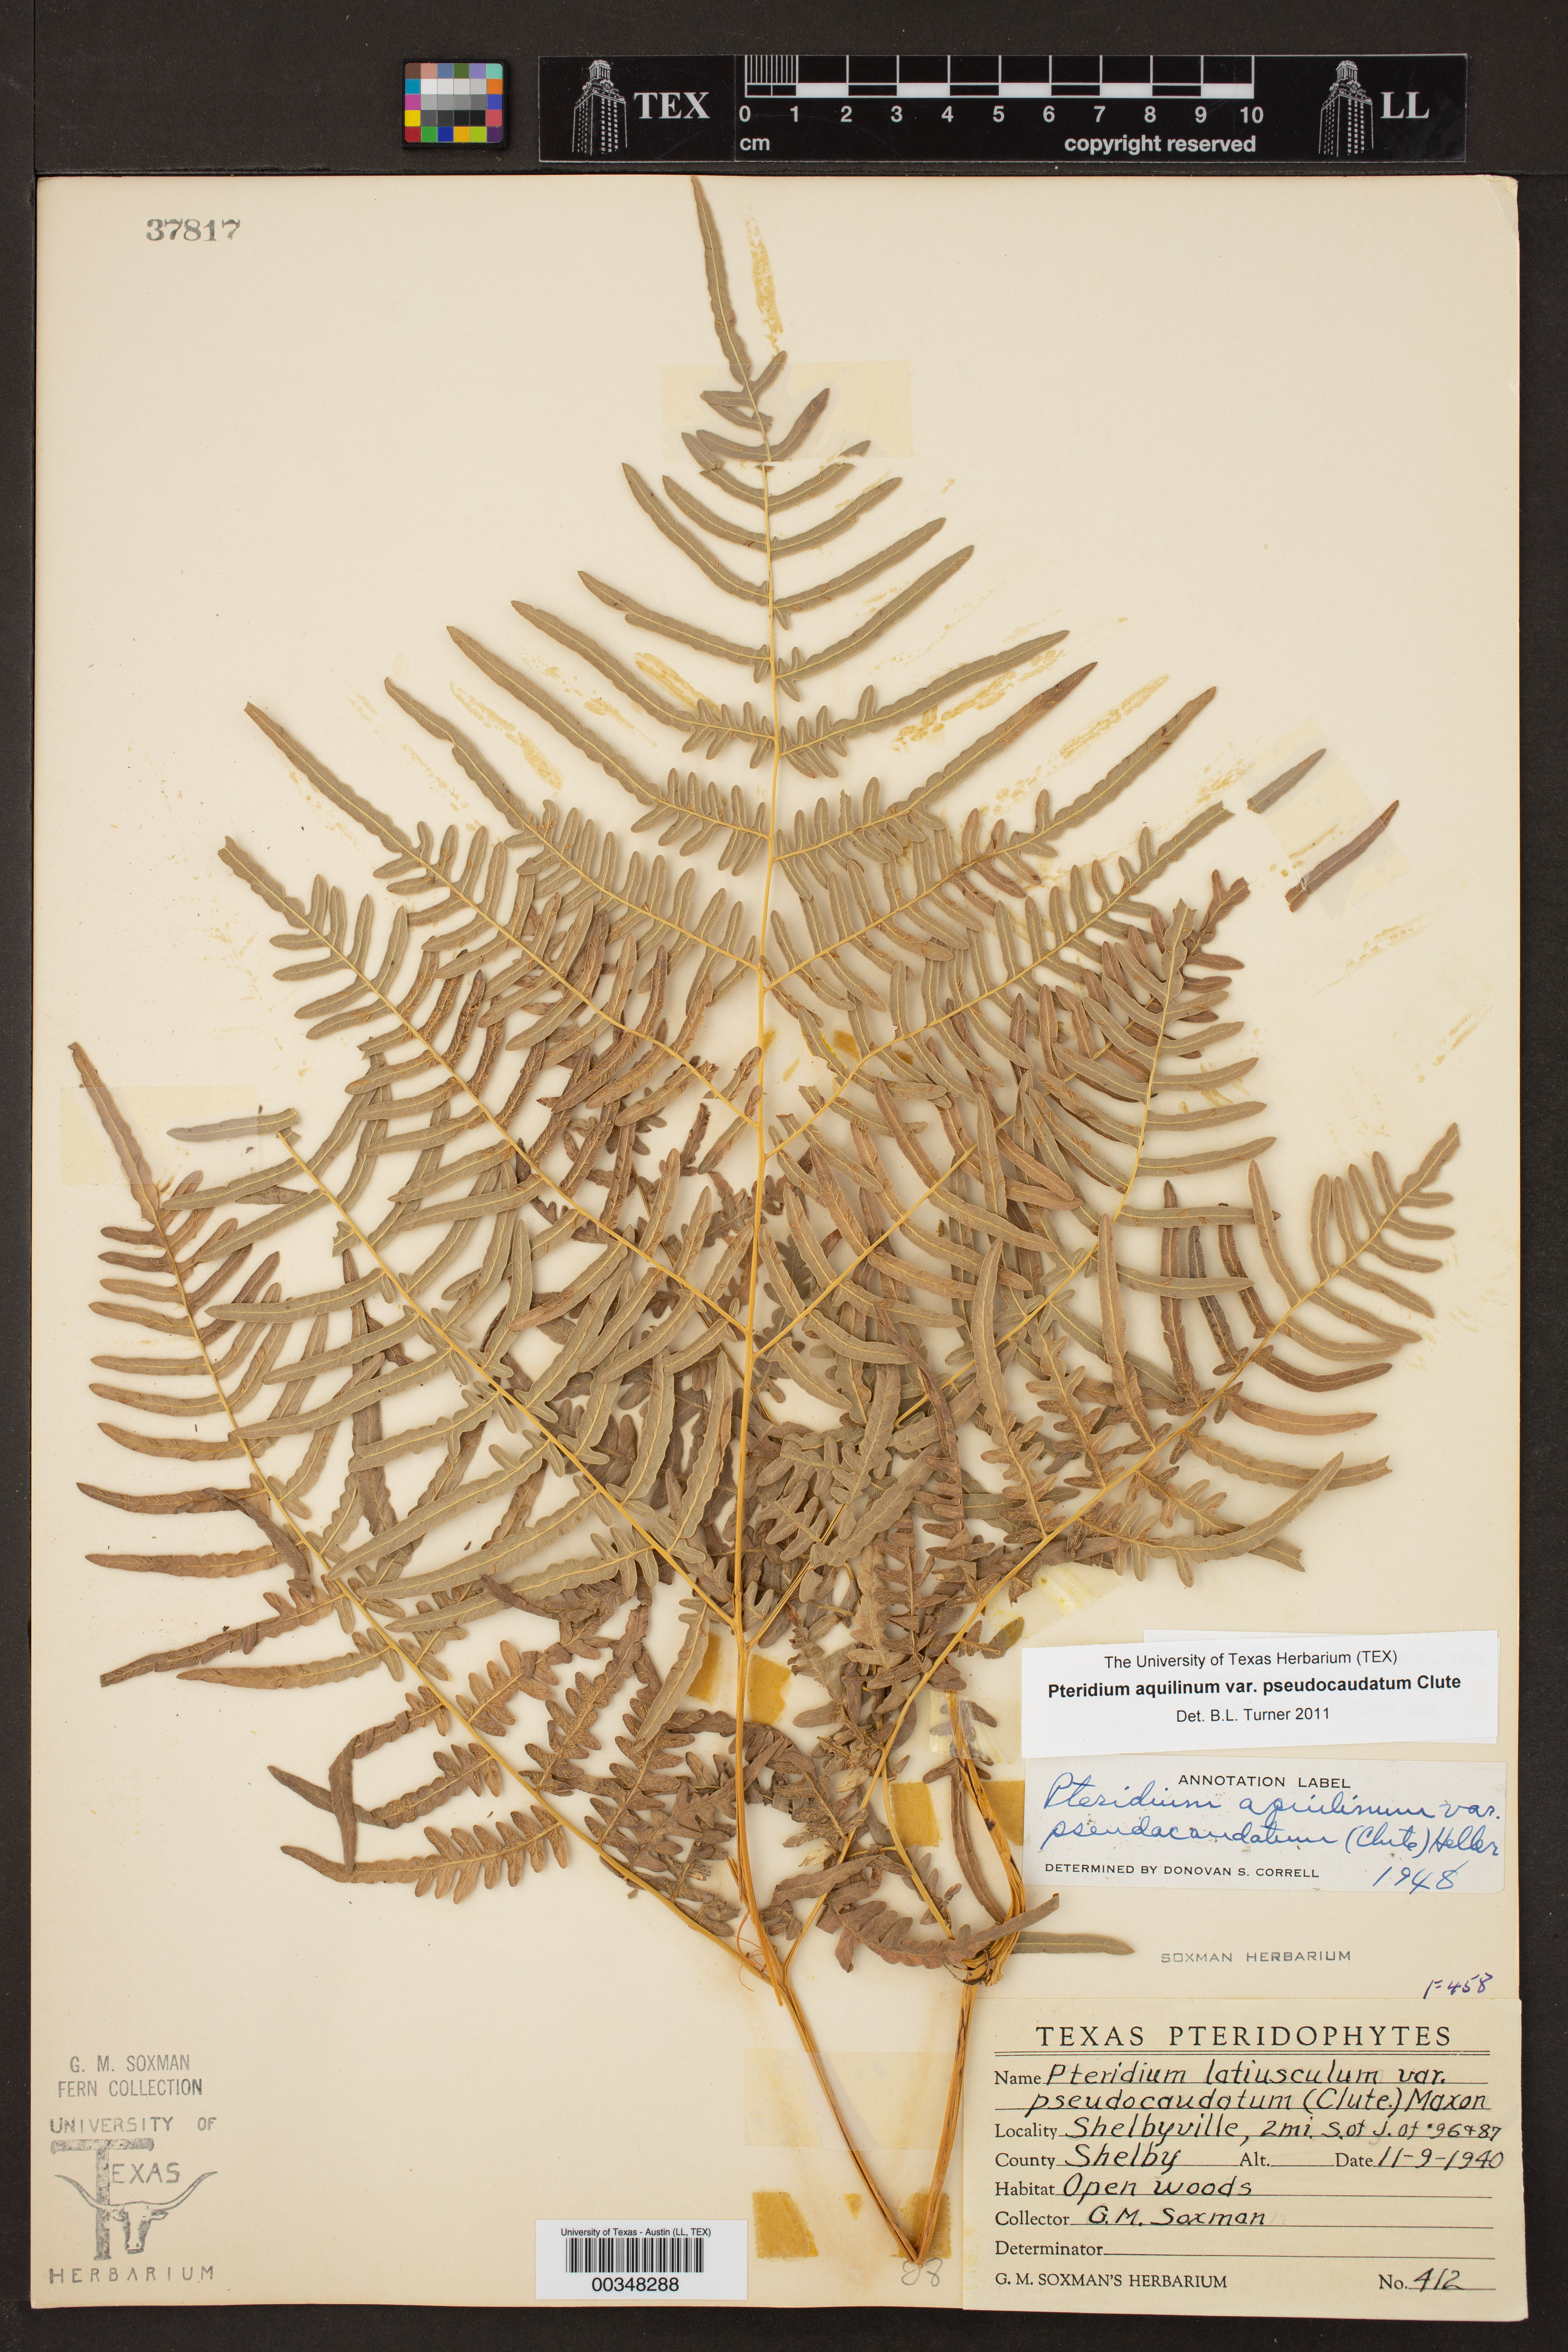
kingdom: Plantae
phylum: Tracheophyta
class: Polypodiopsida
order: Polypodiales
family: Dennstaedtiaceae
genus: Pteridium
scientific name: Pteridium
